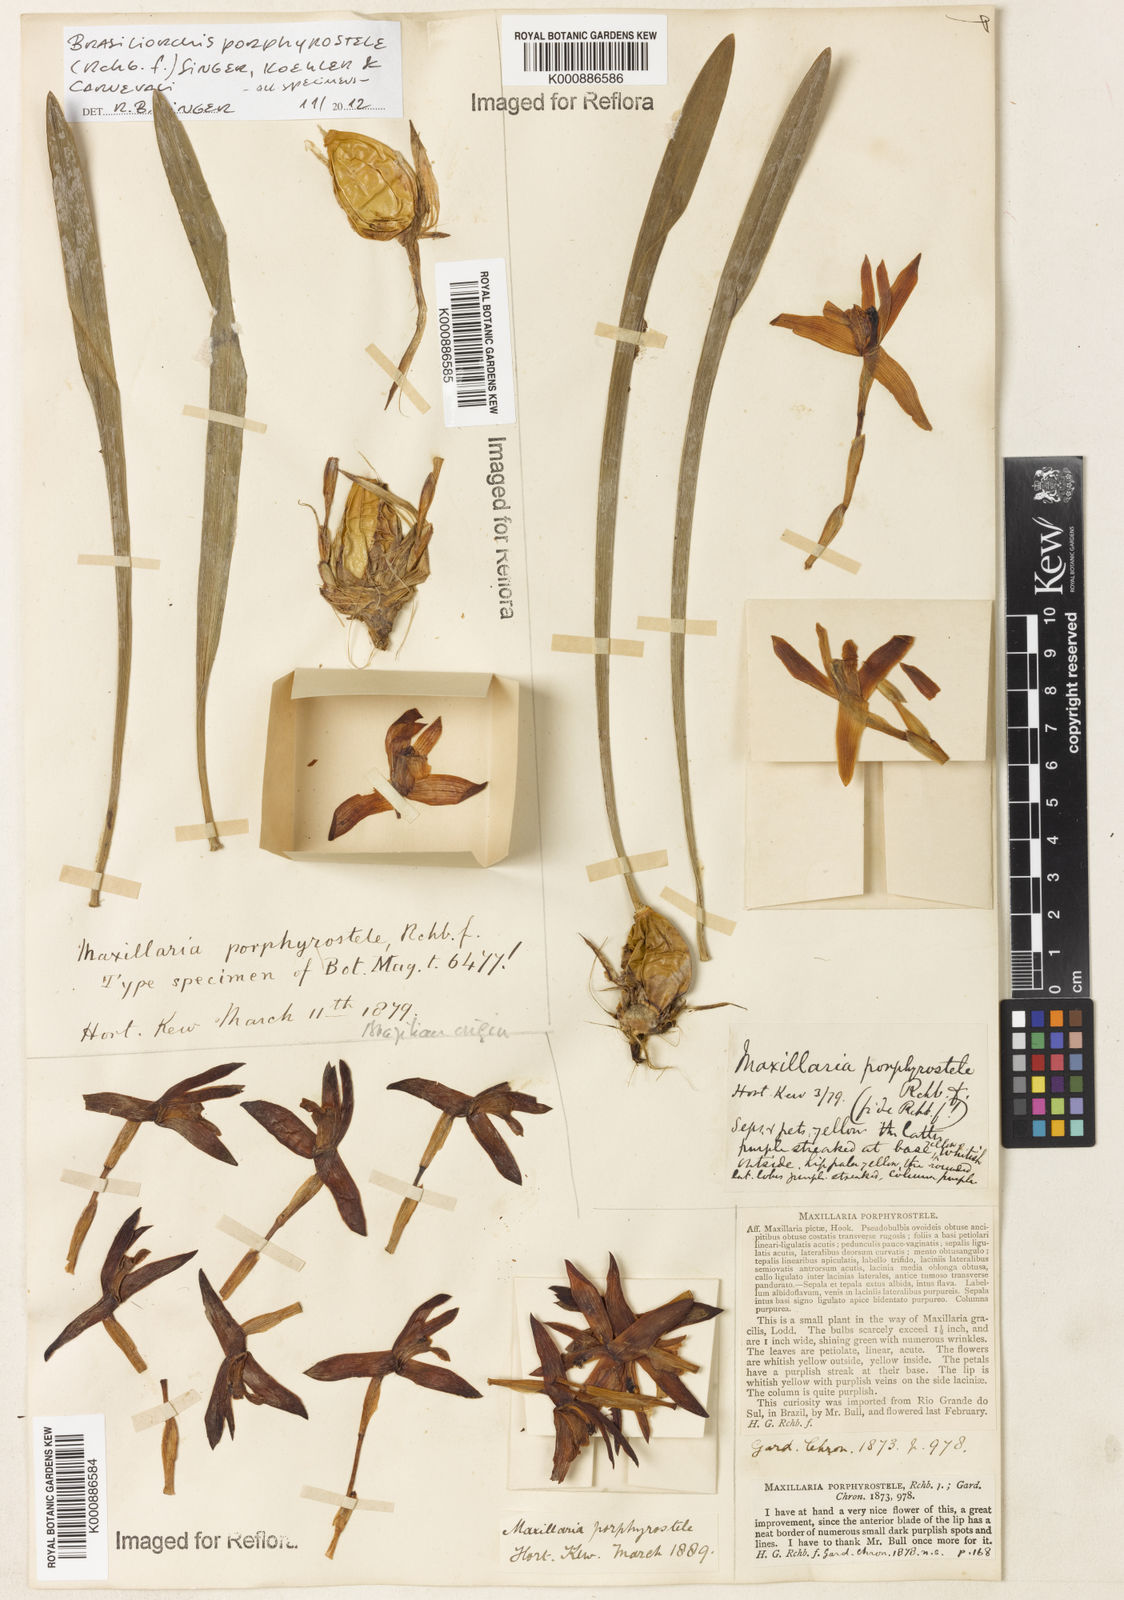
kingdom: Plantae
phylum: Tracheophyta
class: Liliopsida
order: Asparagales
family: Orchidaceae
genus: Maxillaria
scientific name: Maxillaria porphyrostele
